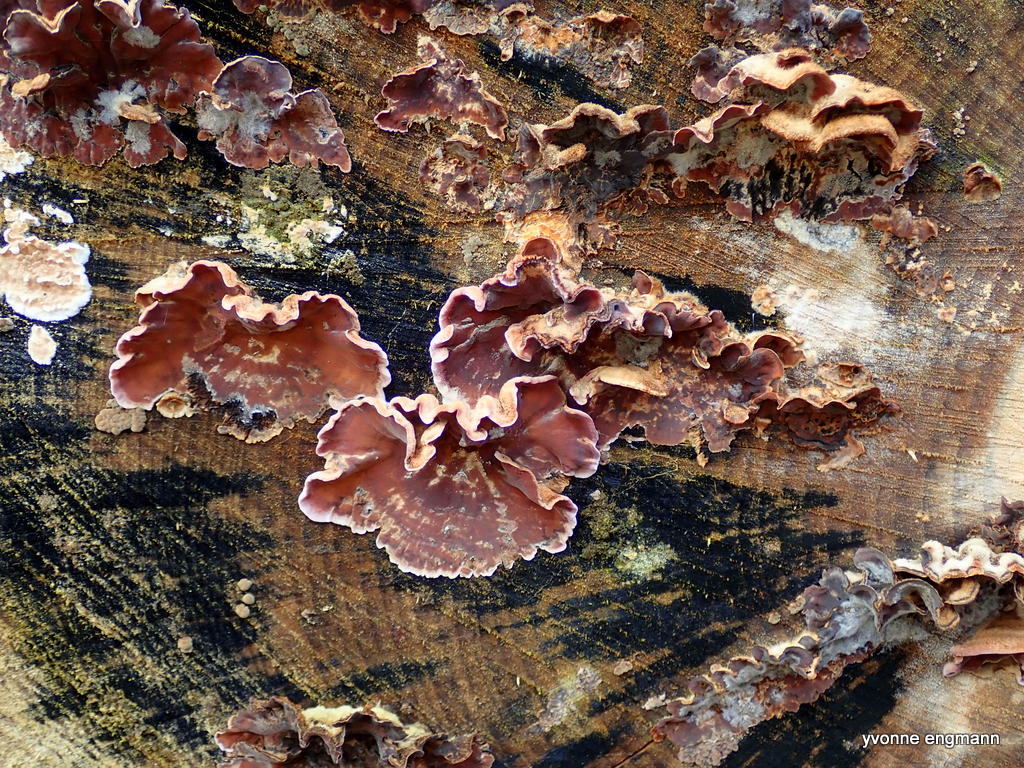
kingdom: Fungi
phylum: Basidiomycota
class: Agaricomycetes
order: Agaricales
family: Cyphellaceae
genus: Chondrostereum
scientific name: Chondrostereum purpureum
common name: purpurlædersvamp
